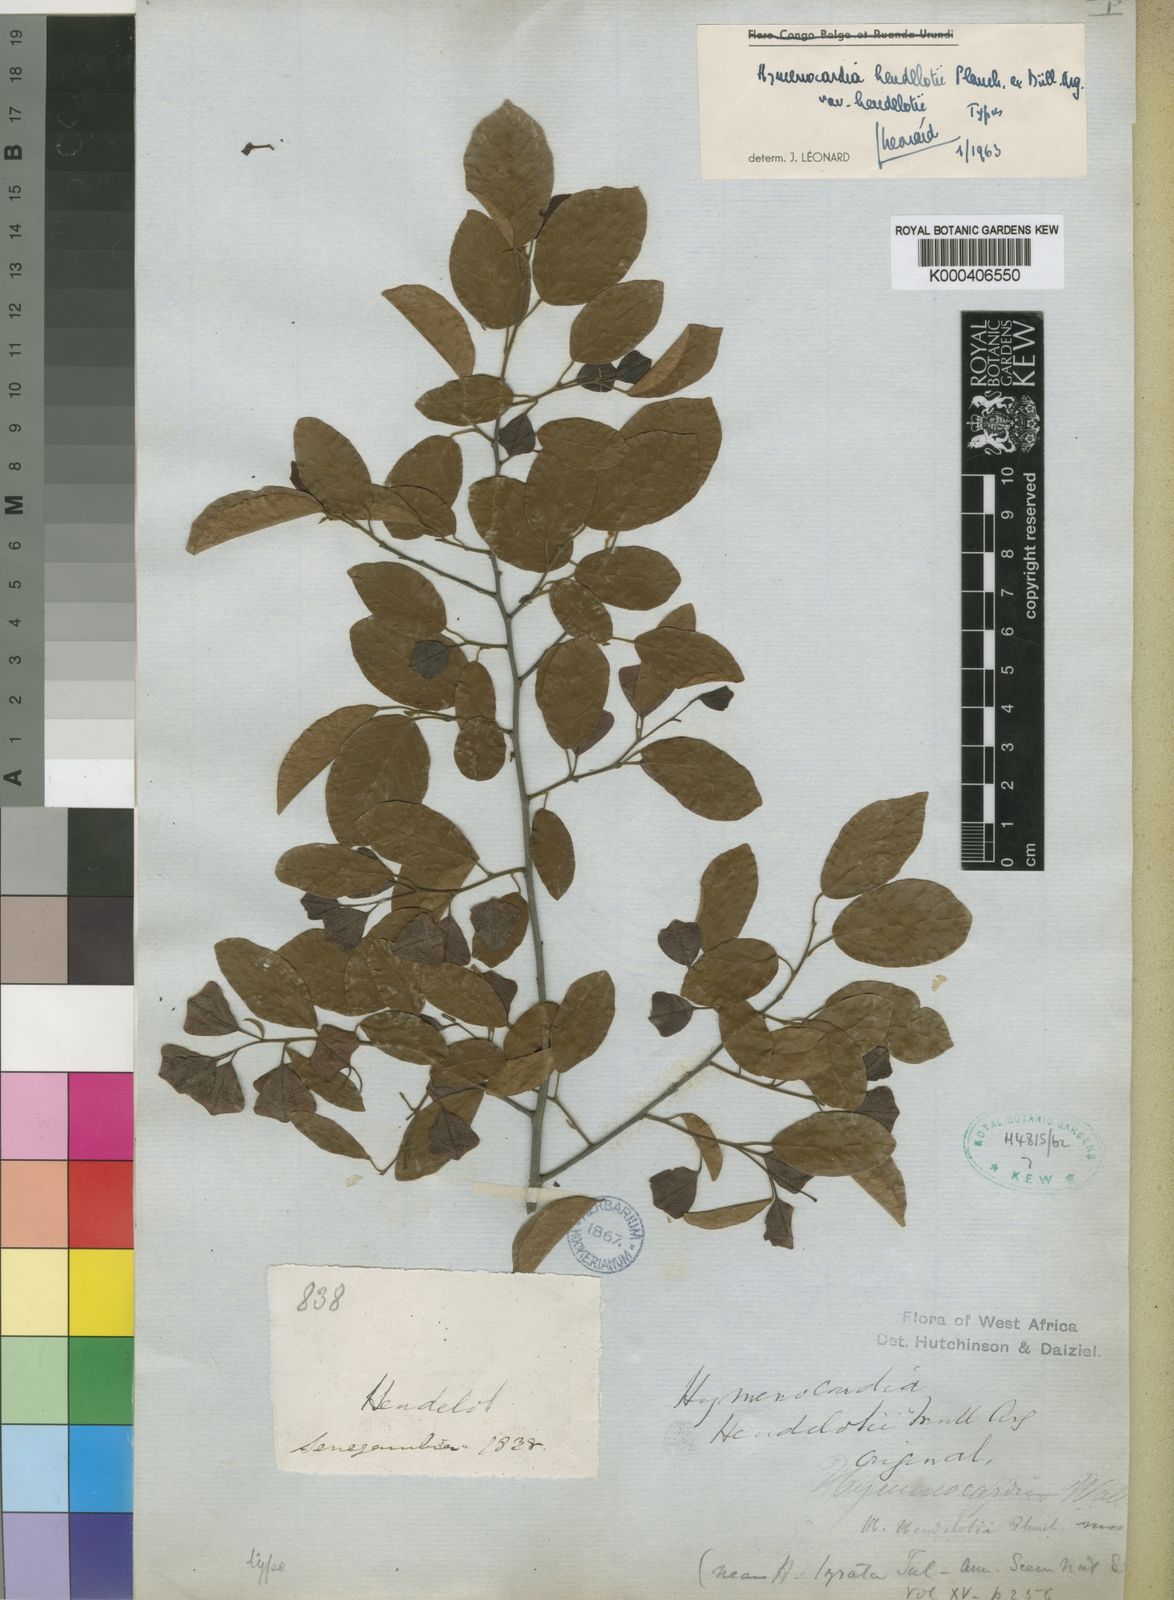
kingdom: Plantae
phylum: Tracheophyta
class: Magnoliopsida
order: Malpighiales
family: Phyllanthaceae
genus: Hymenocardia
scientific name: Hymenocardia
